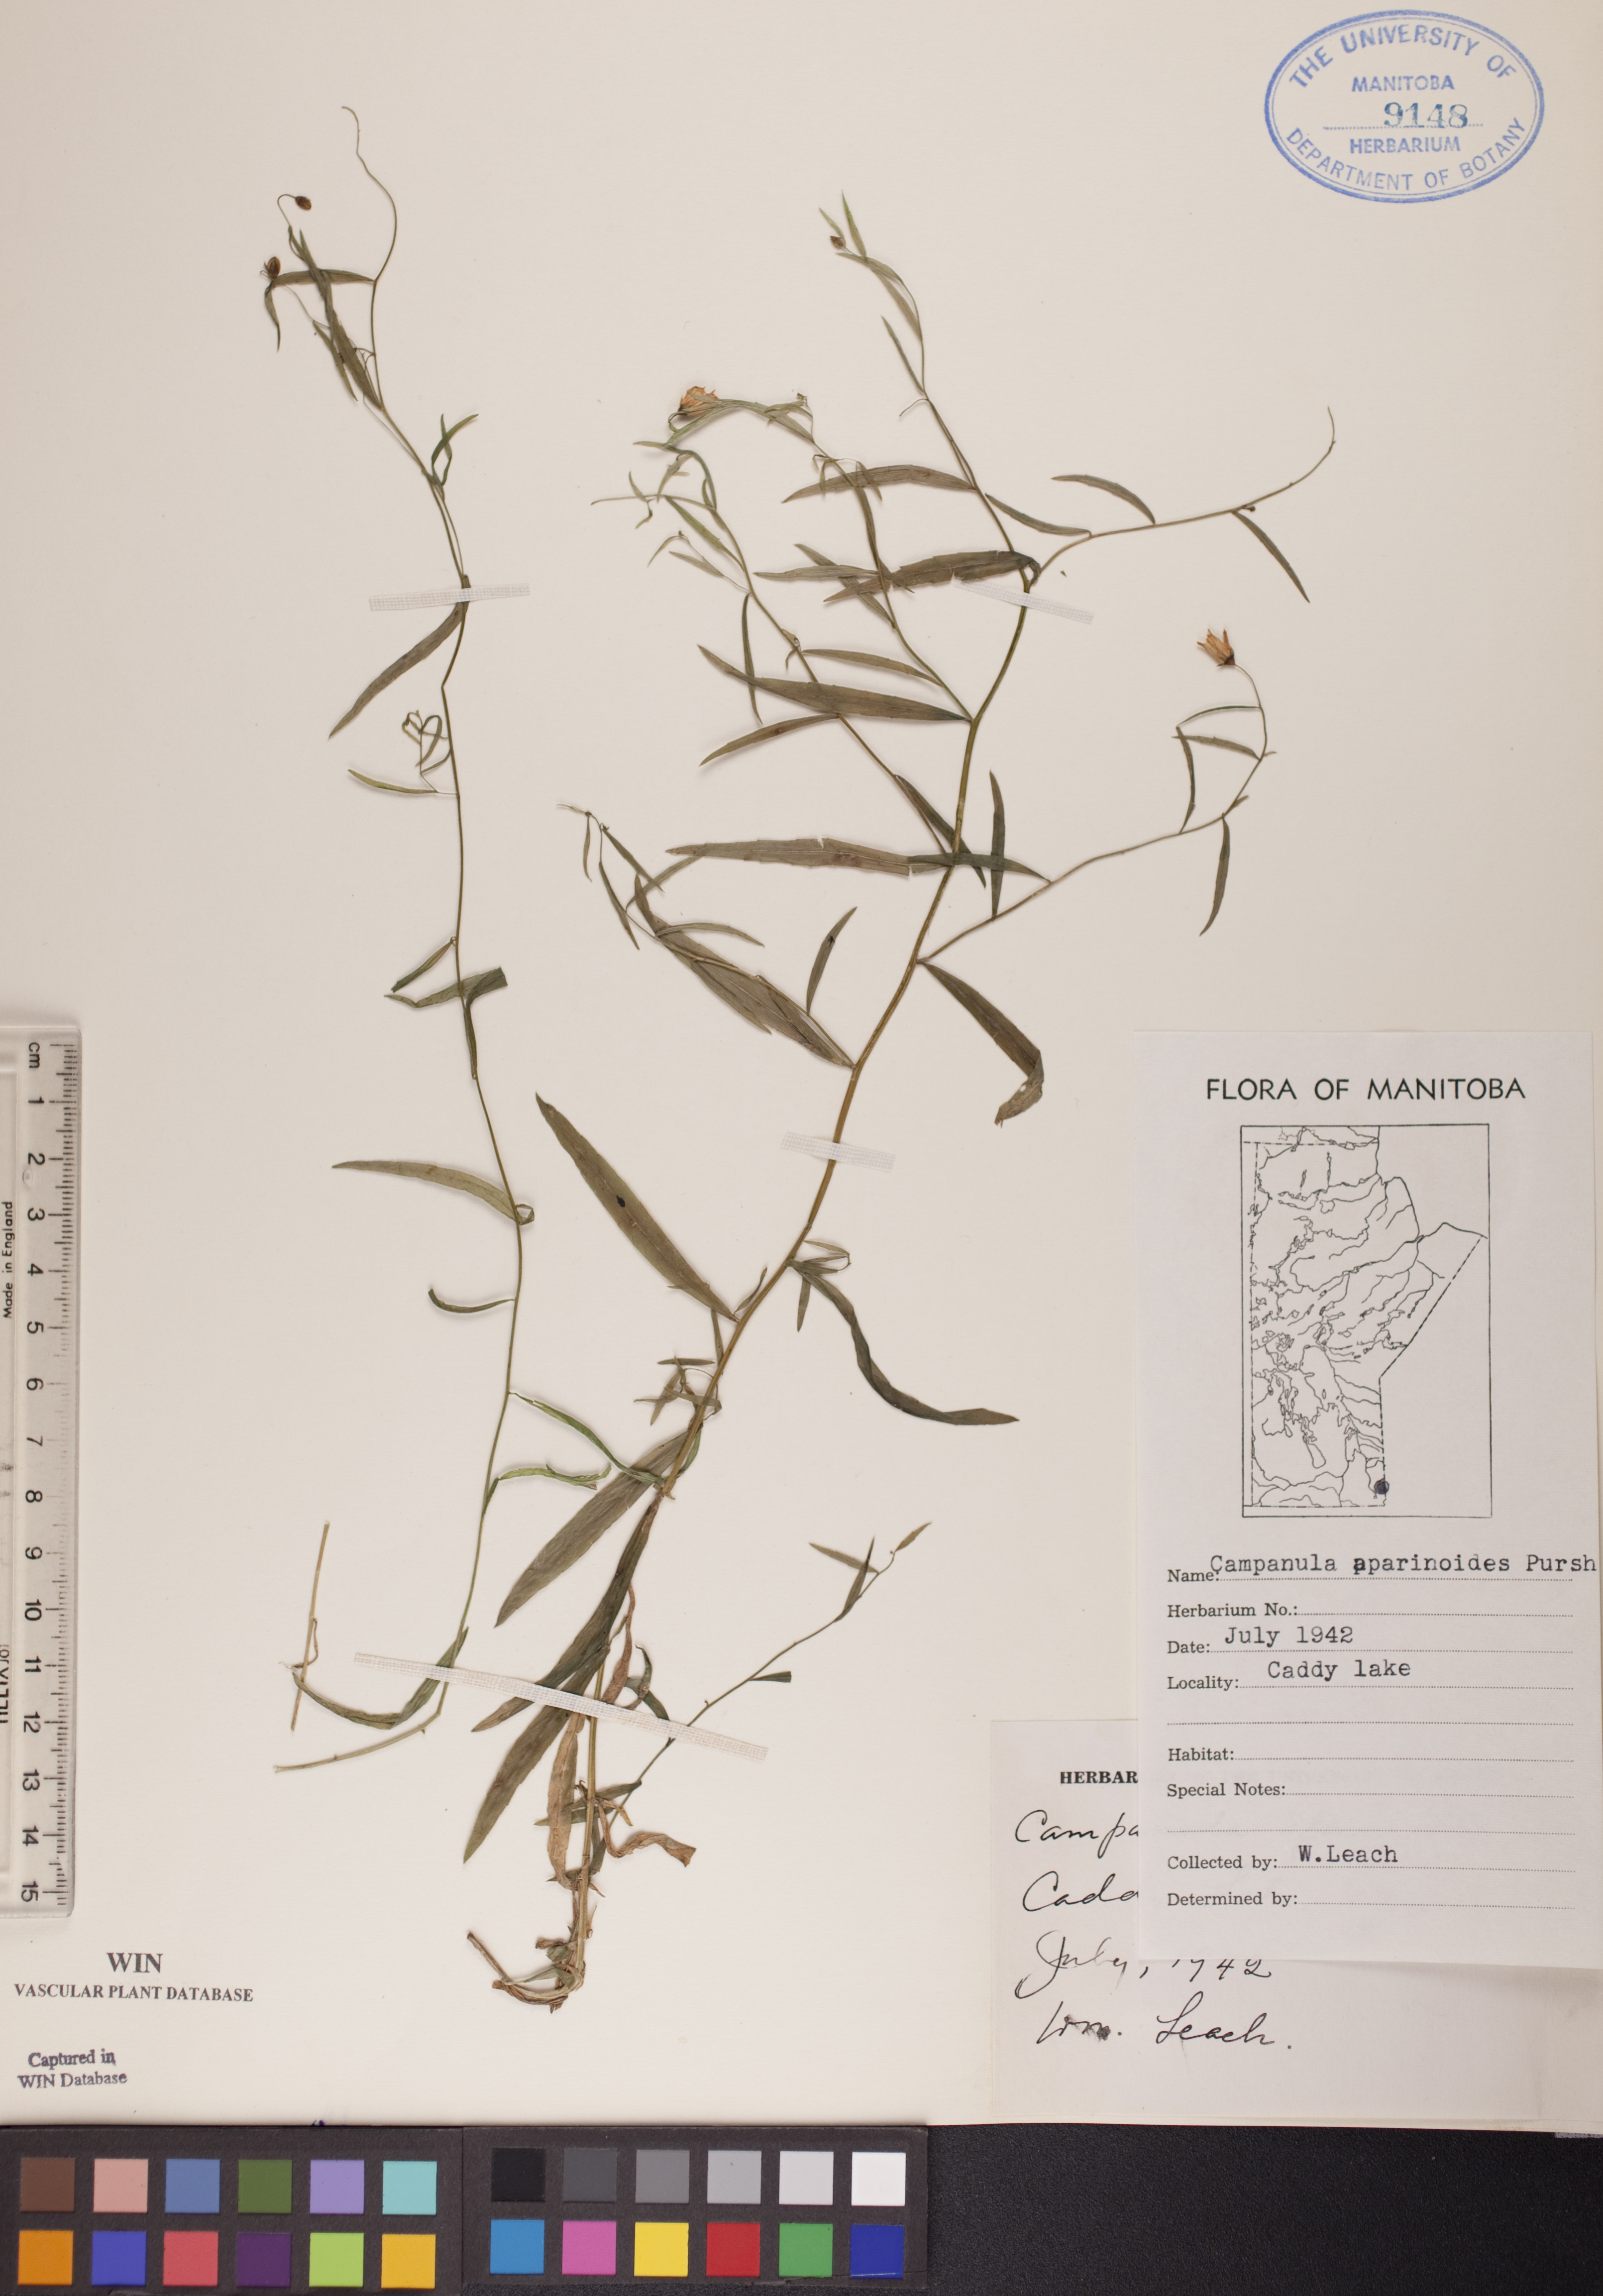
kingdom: Plantae
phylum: Tracheophyta
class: Magnoliopsida
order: Asterales
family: Campanulaceae
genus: Palustricodon
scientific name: Palustricodon aparinoides
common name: Bedstraw bellflower
